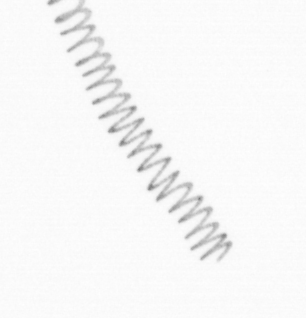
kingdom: Chromista
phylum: Ochrophyta
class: Bacillariophyceae
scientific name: Bacillariophyceae
